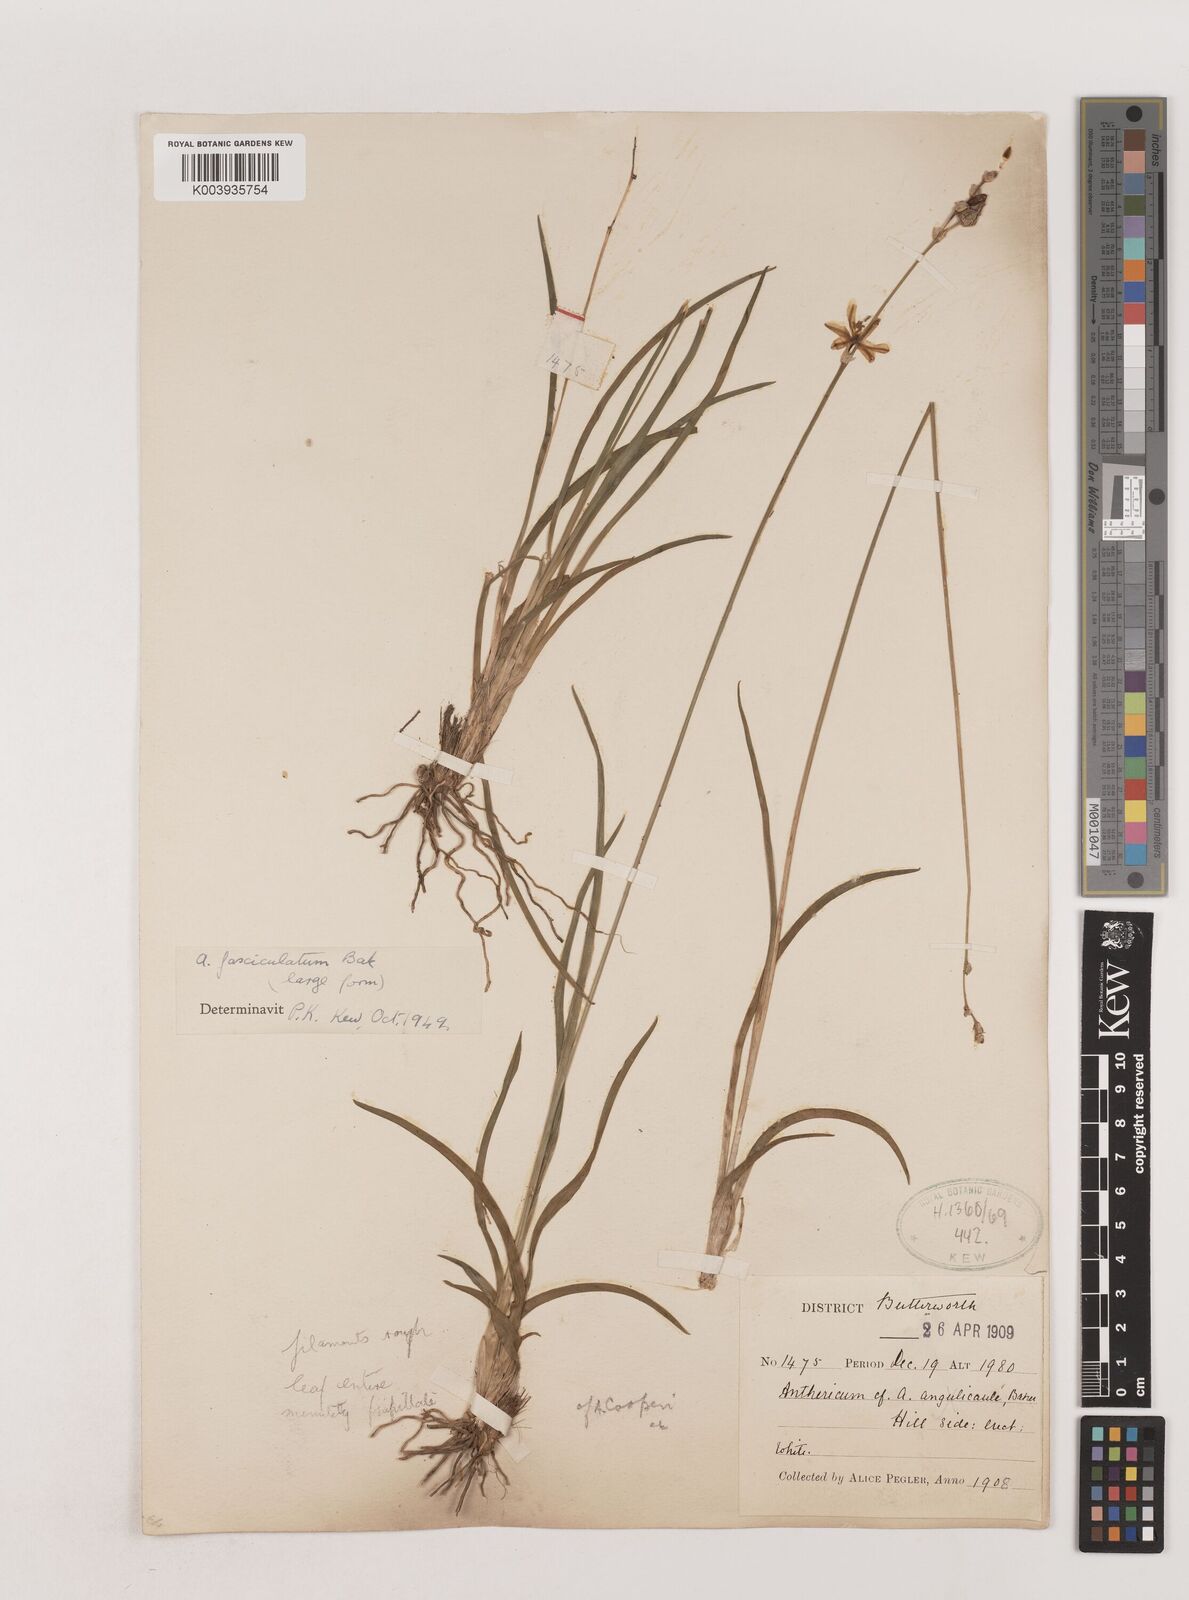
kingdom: Plantae
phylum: Tracheophyta
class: Liliopsida
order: Asparagales
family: Asparagaceae
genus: Chlorophytum
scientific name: Chlorophytum fasciculatum
